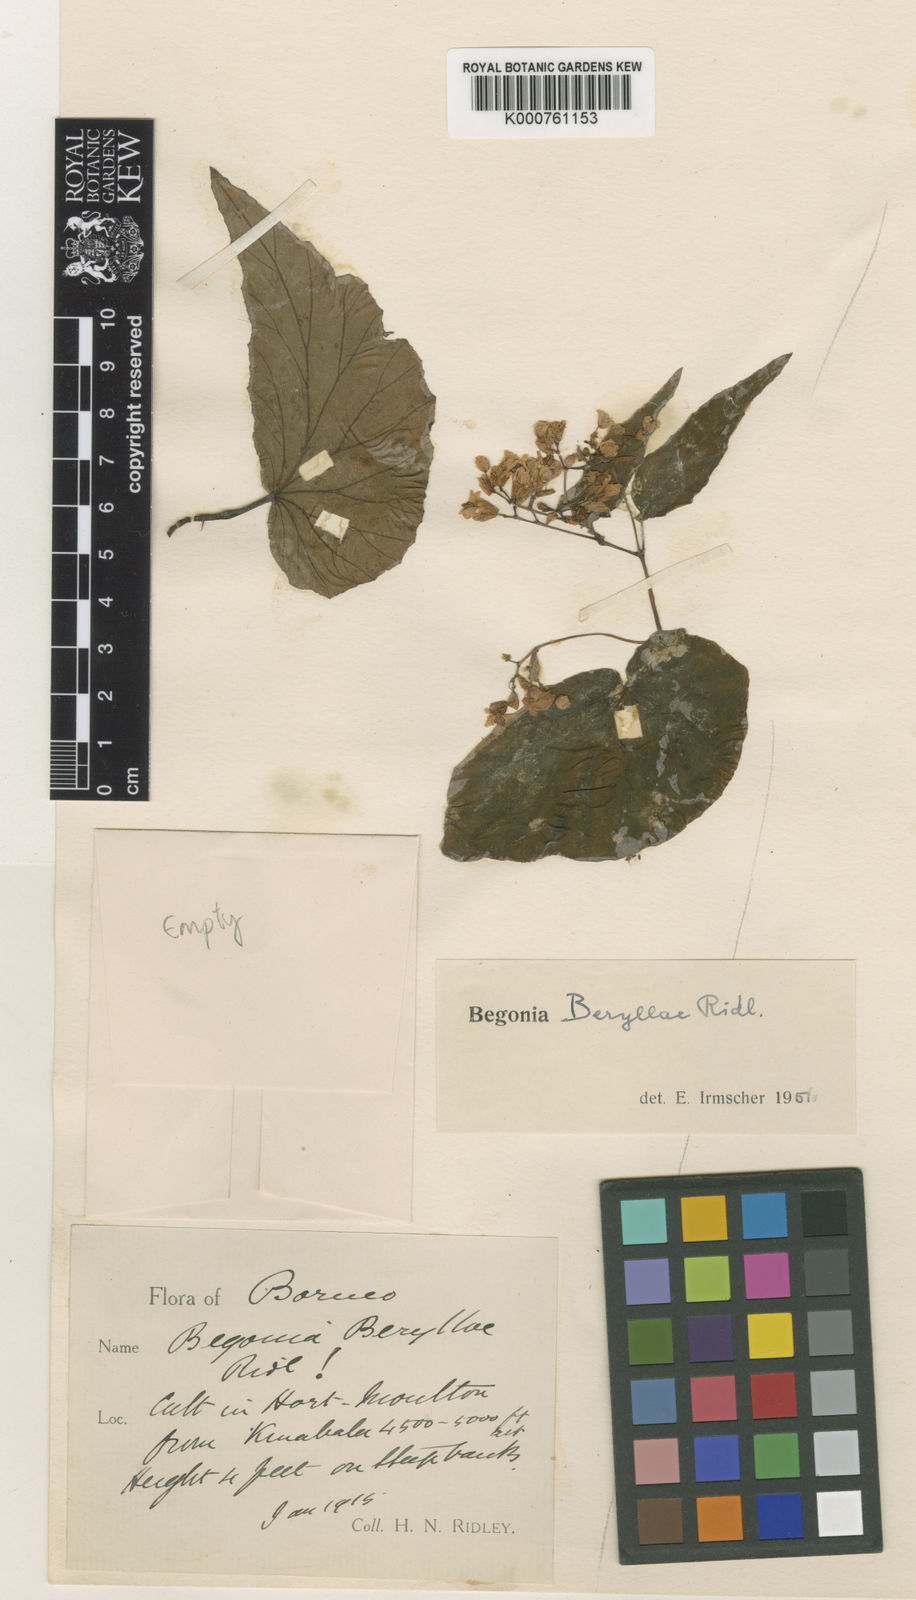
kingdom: Plantae
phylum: Tracheophyta
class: Magnoliopsida
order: Cucurbitales
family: Begoniaceae
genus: Begonia
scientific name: Begonia beryllae
